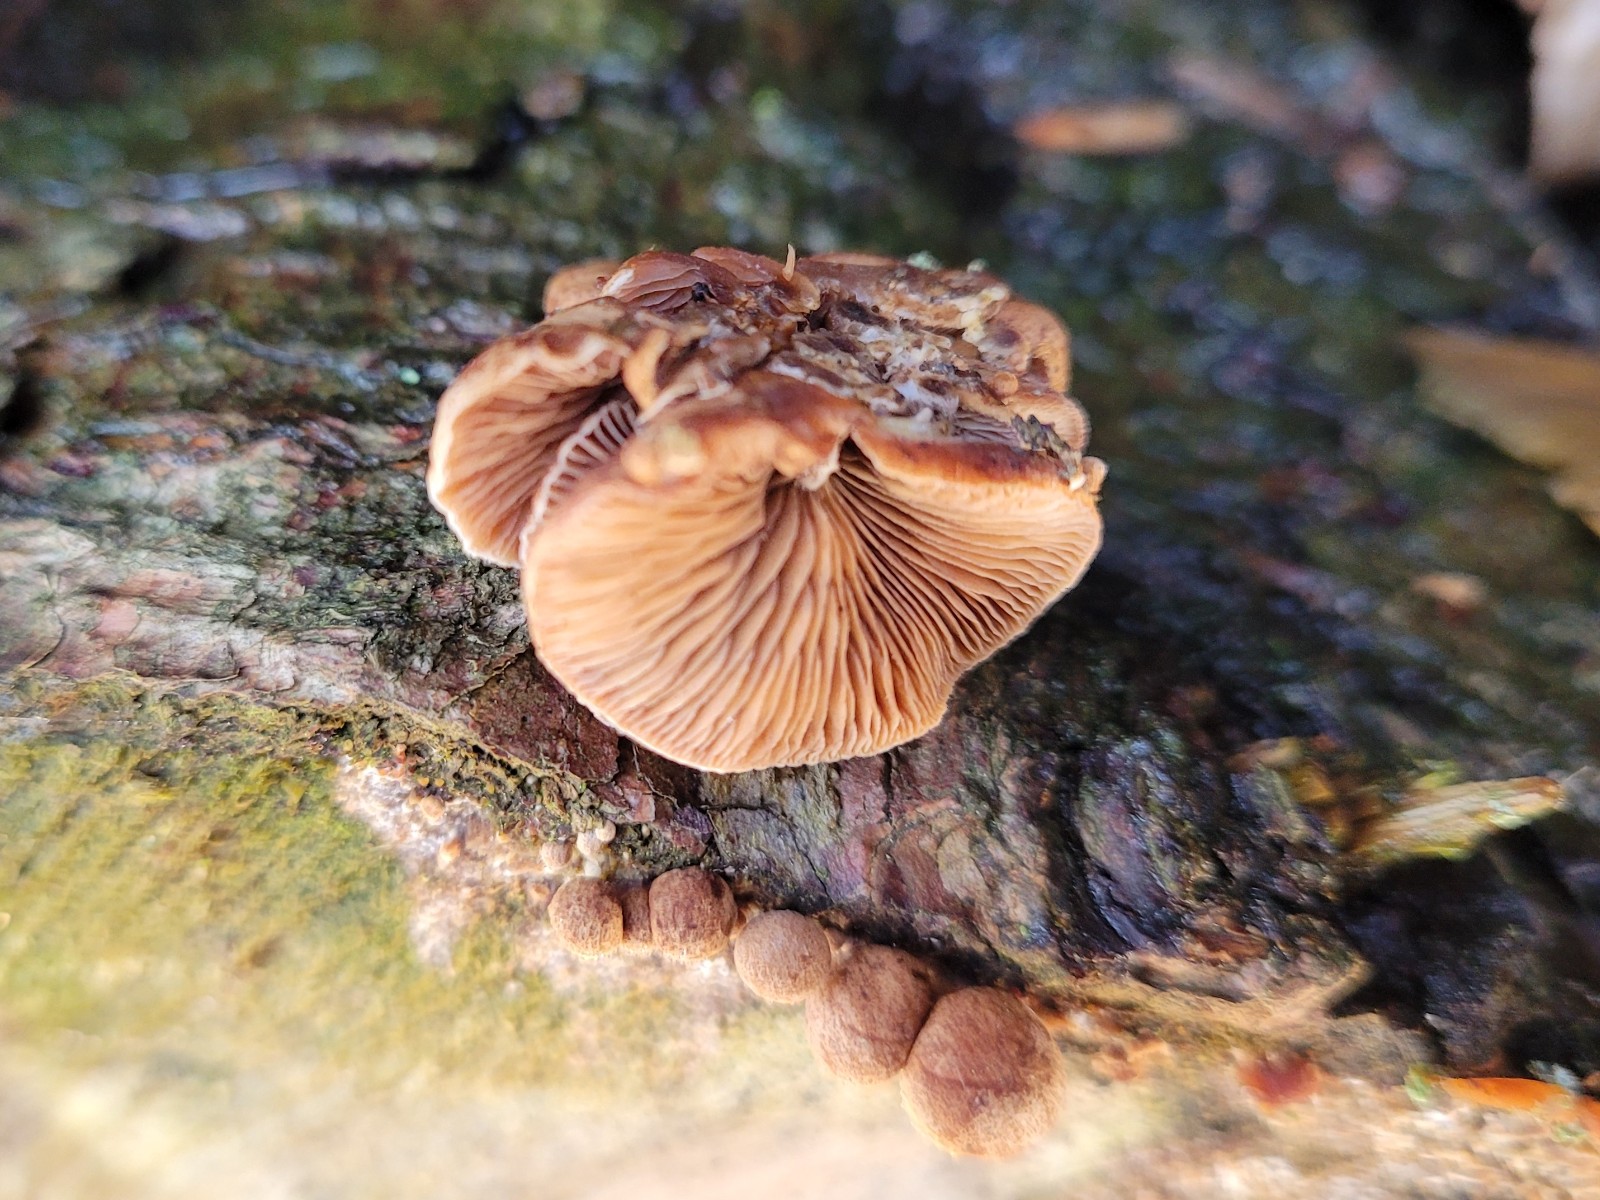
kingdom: Fungi
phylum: Basidiomycota
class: Agaricomycetes
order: Agaricales
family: Strophariaceae
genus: Deconica
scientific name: Deconica horizontalis
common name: ved-stråhat
